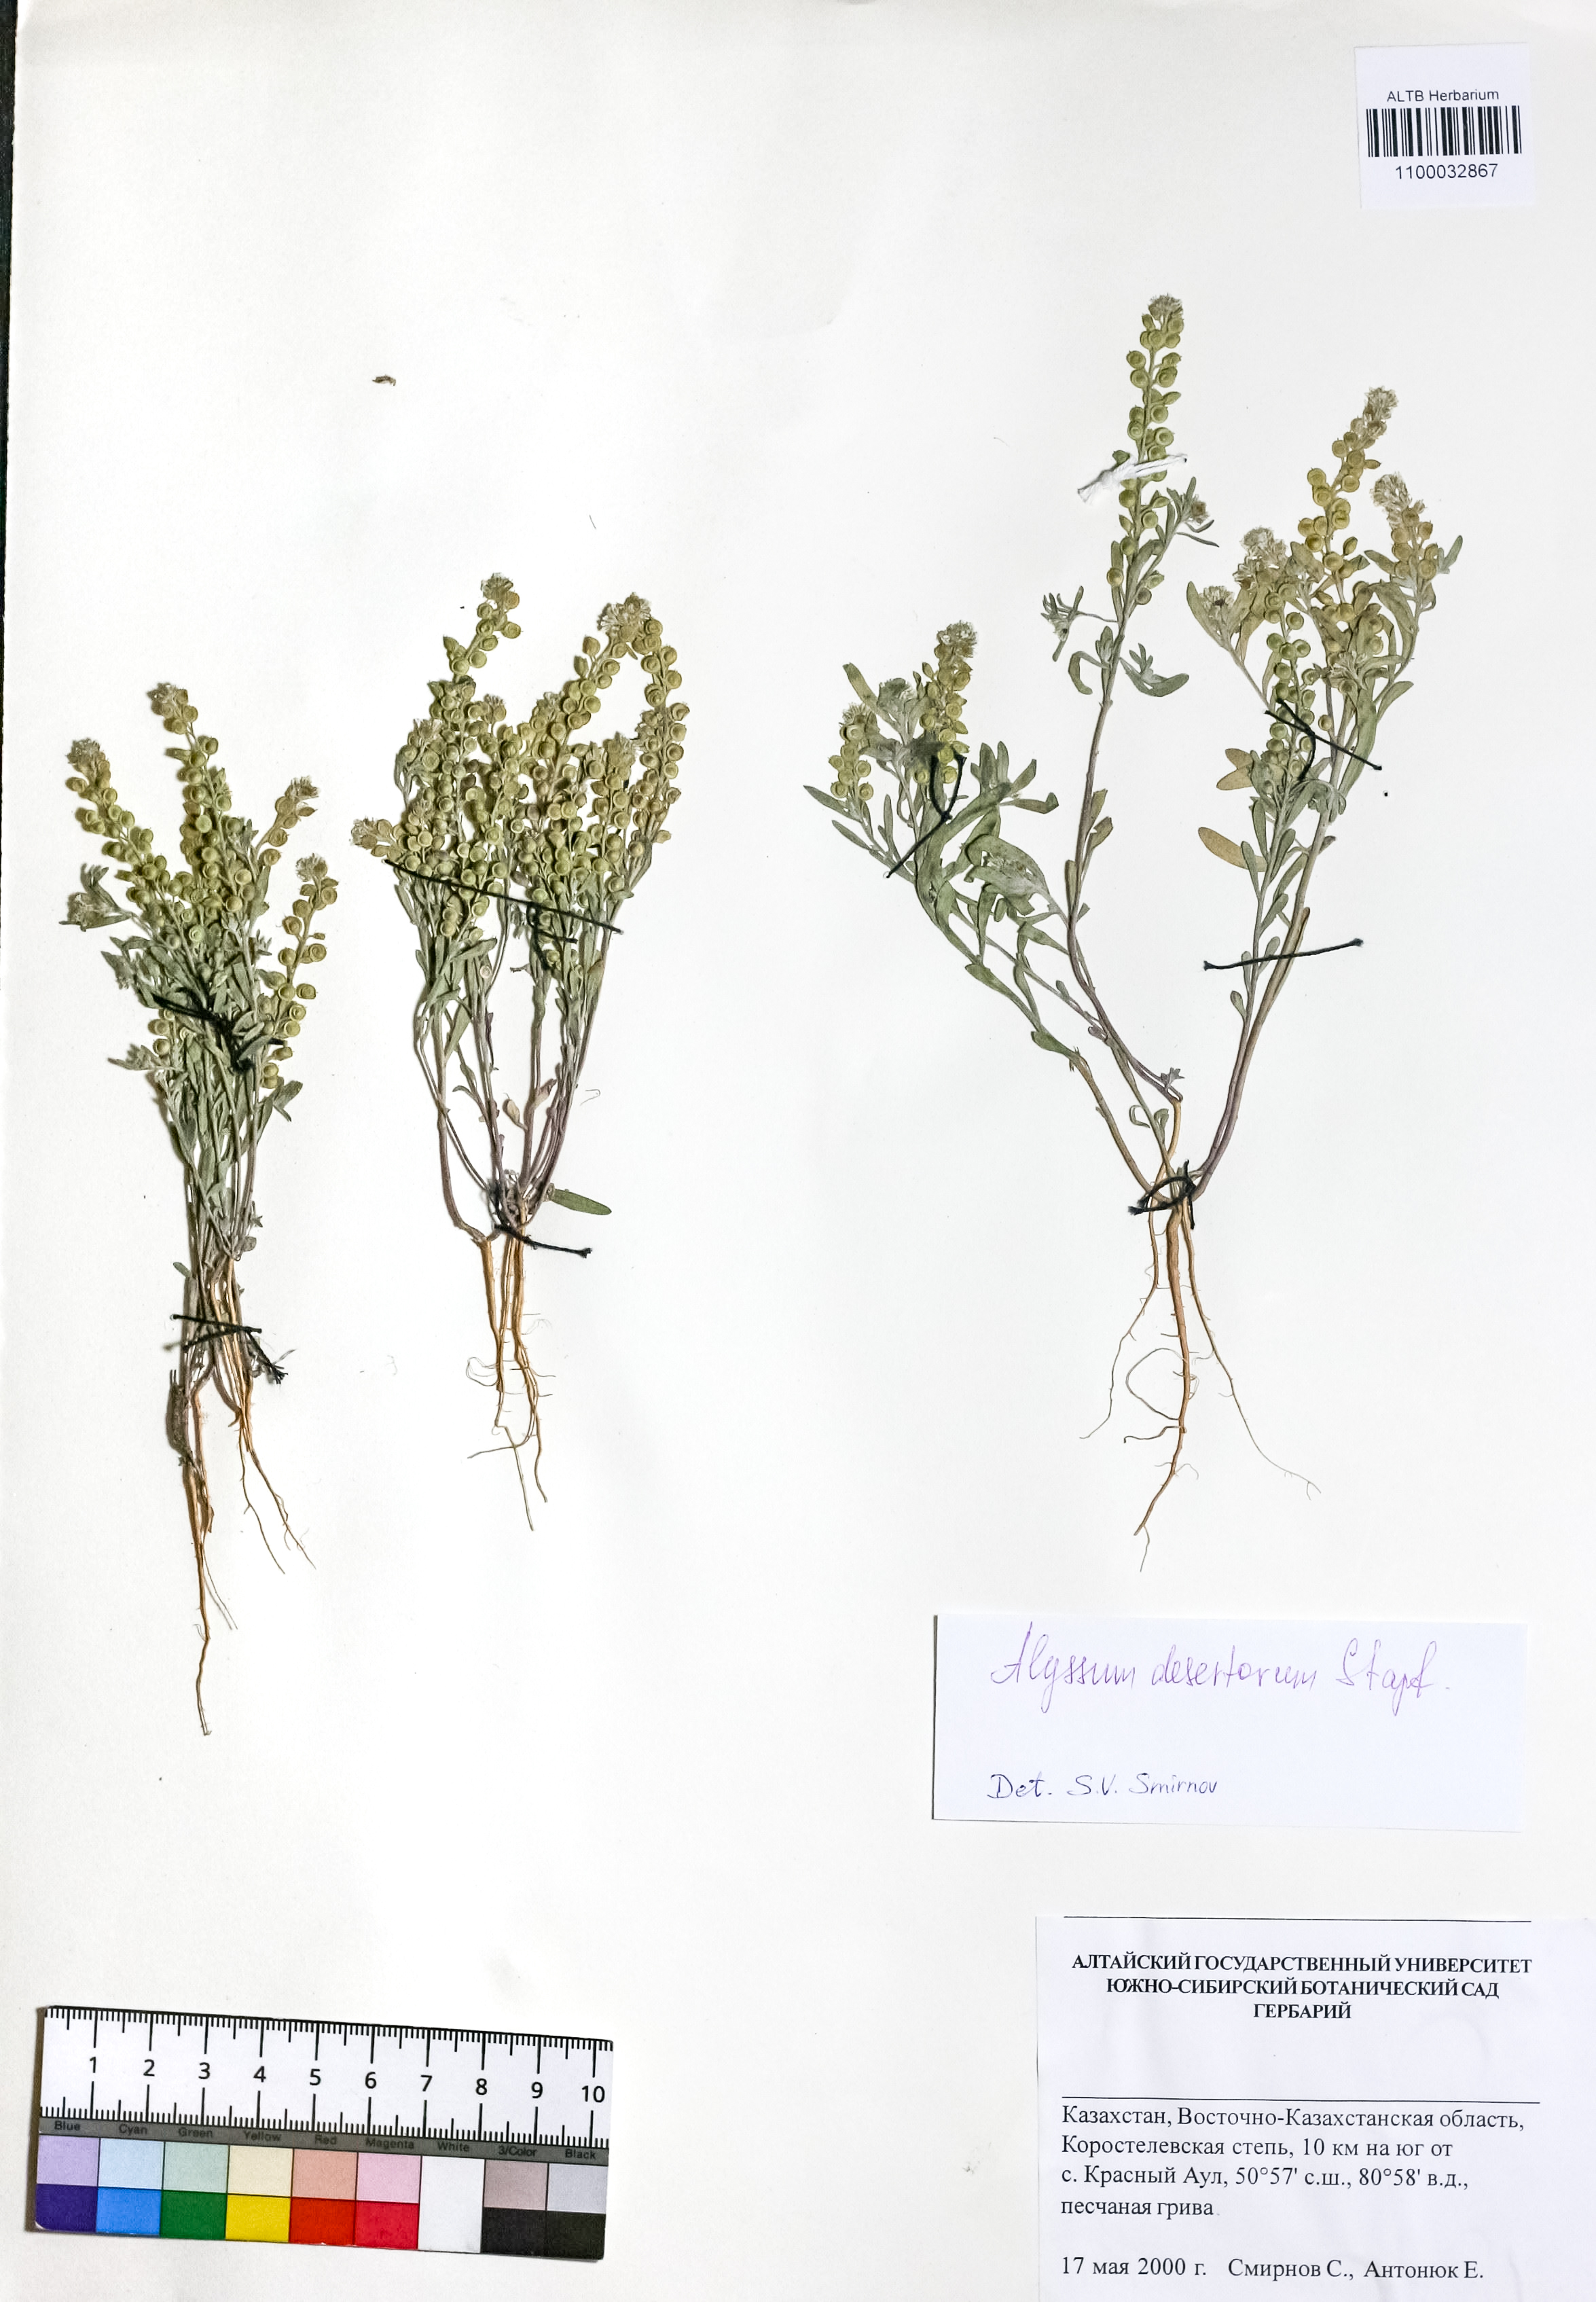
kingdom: Plantae
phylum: Tracheophyta
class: Magnoliopsida
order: Brassicales
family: Brassicaceae
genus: Alyssum
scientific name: Alyssum turkestanicum
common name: Desert alyssum
